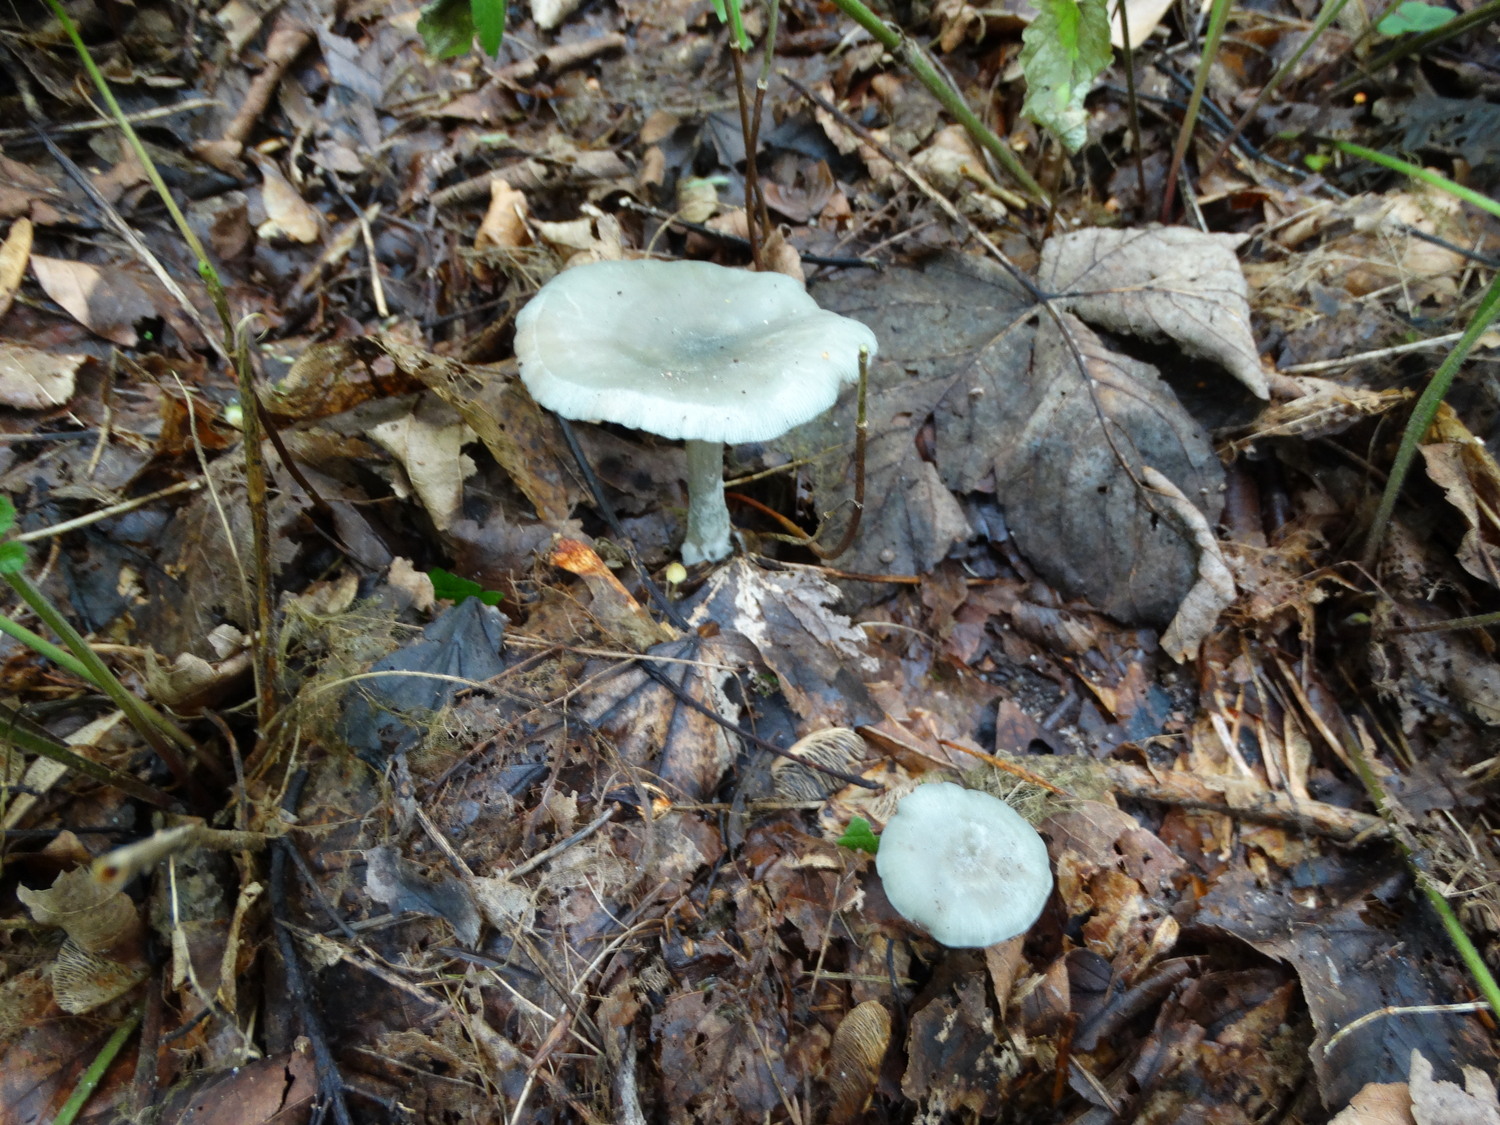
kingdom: Fungi
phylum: Basidiomycota
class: Agaricomycetes
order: Agaricales
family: Tricholomataceae
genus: Clitocybe
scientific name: Clitocybe odora
